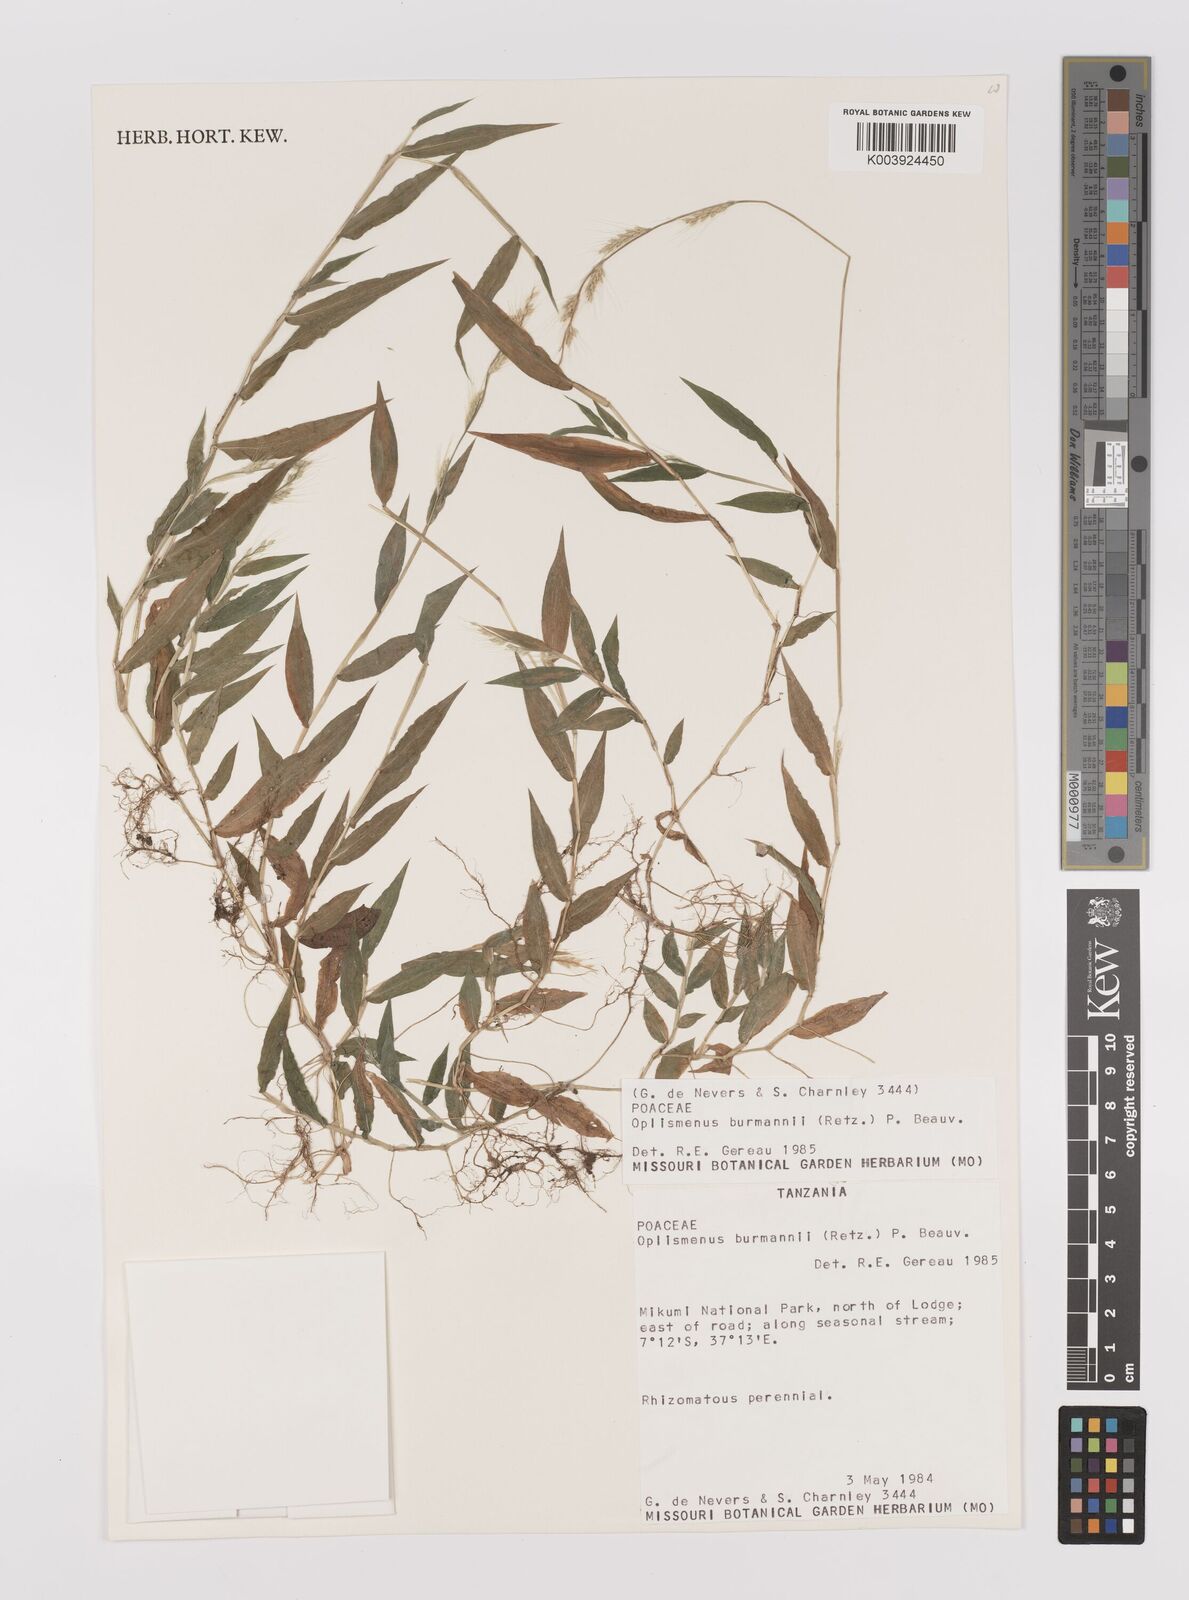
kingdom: Plantae
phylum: Tracheophyta
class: Liliopsida
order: Poales
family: Poaceae
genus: Oplismenus
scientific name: Oplismenus burmanni
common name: Burmann's basketgrass
